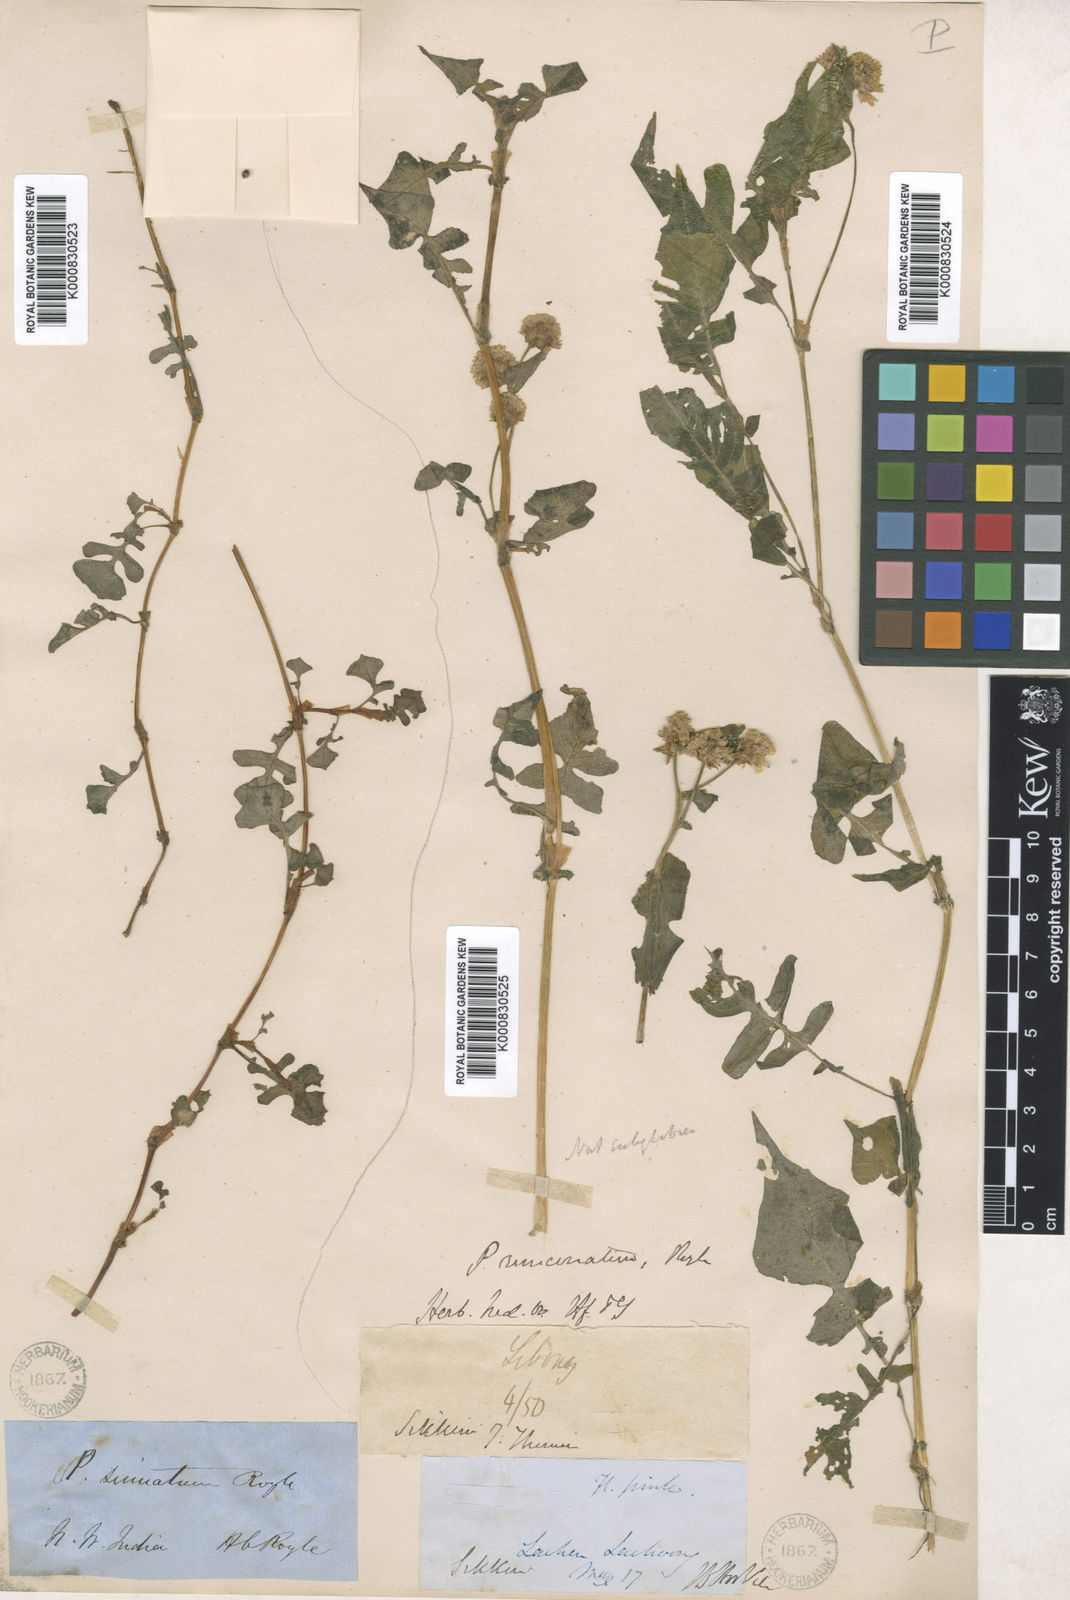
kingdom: Plantae
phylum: Tracheophyta
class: Magnoliopsida
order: Caryophyllales
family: Polygonaceae
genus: Persicaria
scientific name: Persicaria sinuata
